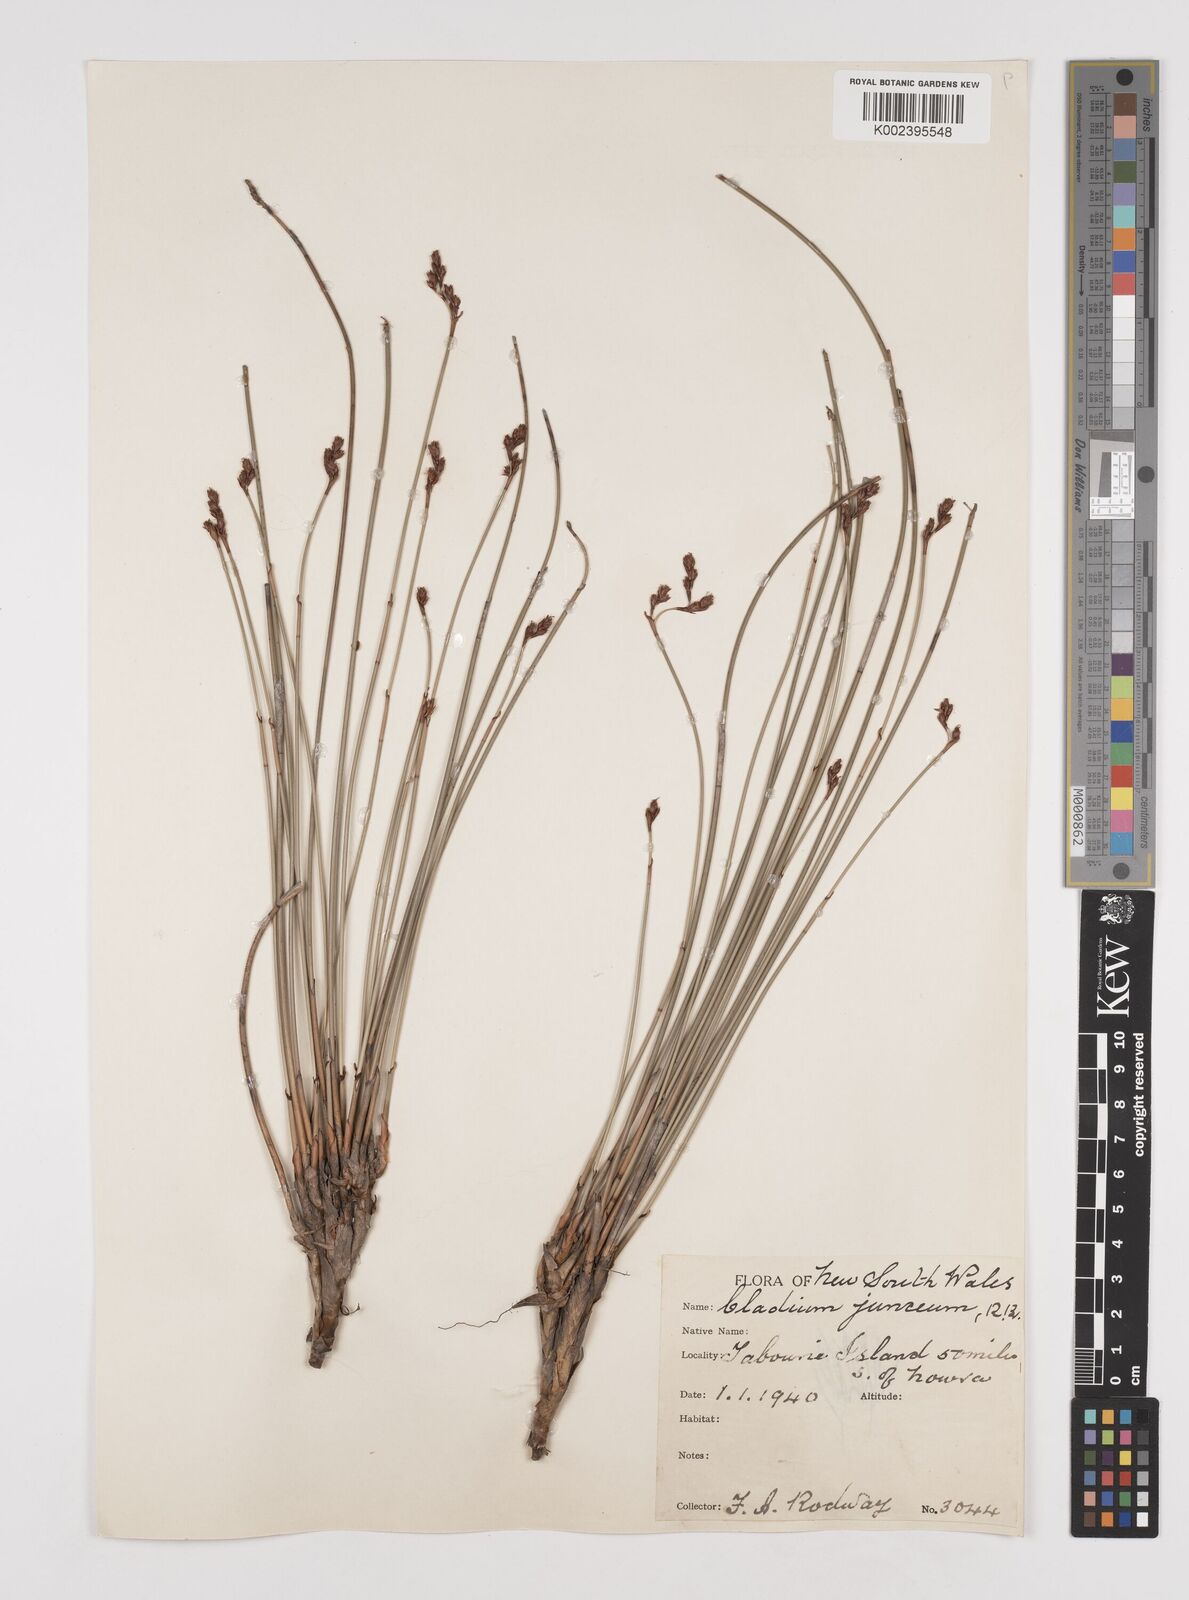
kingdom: Plantae
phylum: Tracheophyta
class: Liliopsida
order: Poales
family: Cyperaceae
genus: Machaerina
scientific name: Machaerina juncea
